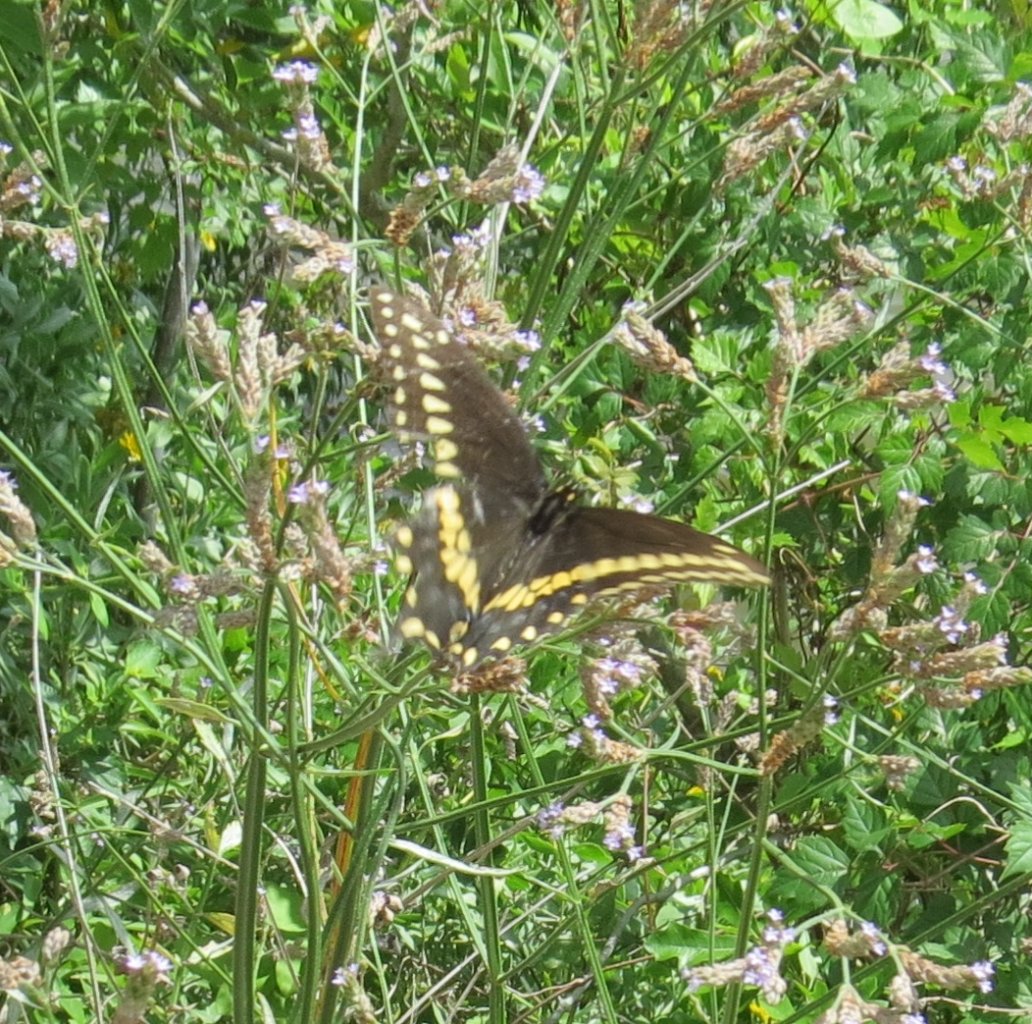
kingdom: Animalia
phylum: Arthropoda
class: Insecta
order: Lepidoptera
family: Papilionidae
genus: Papilio
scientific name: Papilio polyxenes
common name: Black Swallowtail
